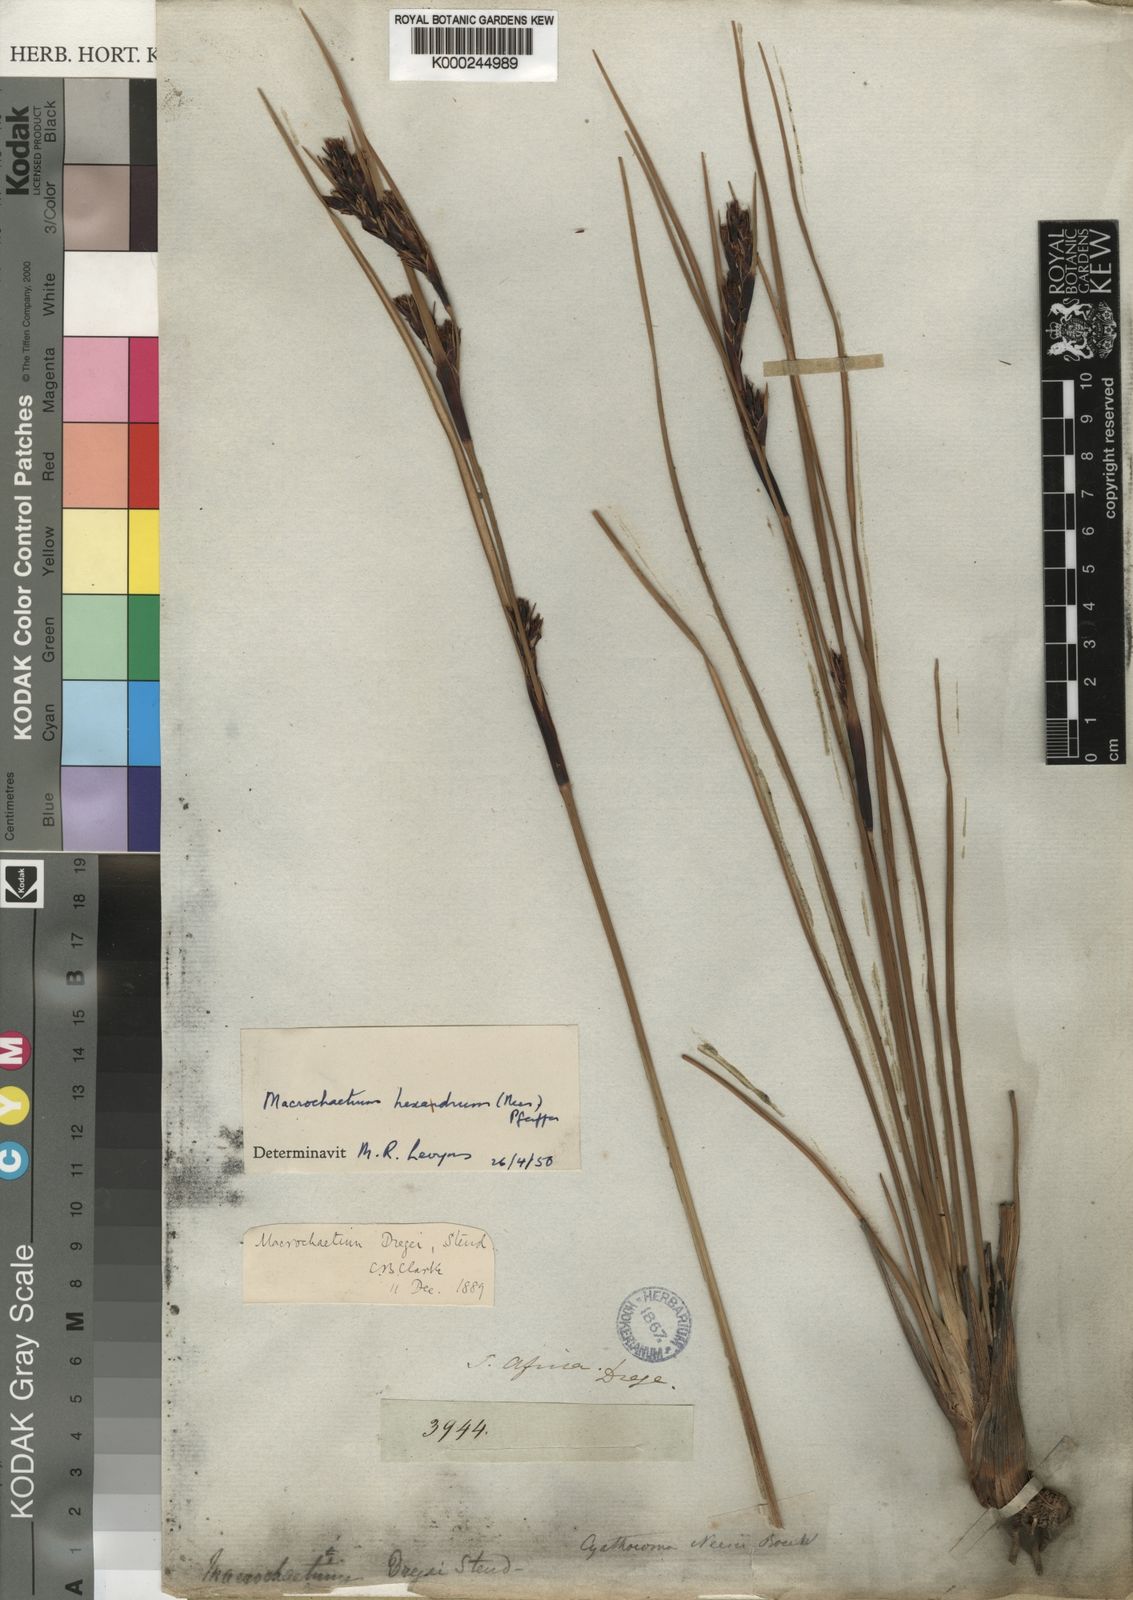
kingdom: Plantae
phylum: Tracheophyta
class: Liliopsida
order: Poales
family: Cyperaceae
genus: Cyathocoma
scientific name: Cyathocoma hexandra
